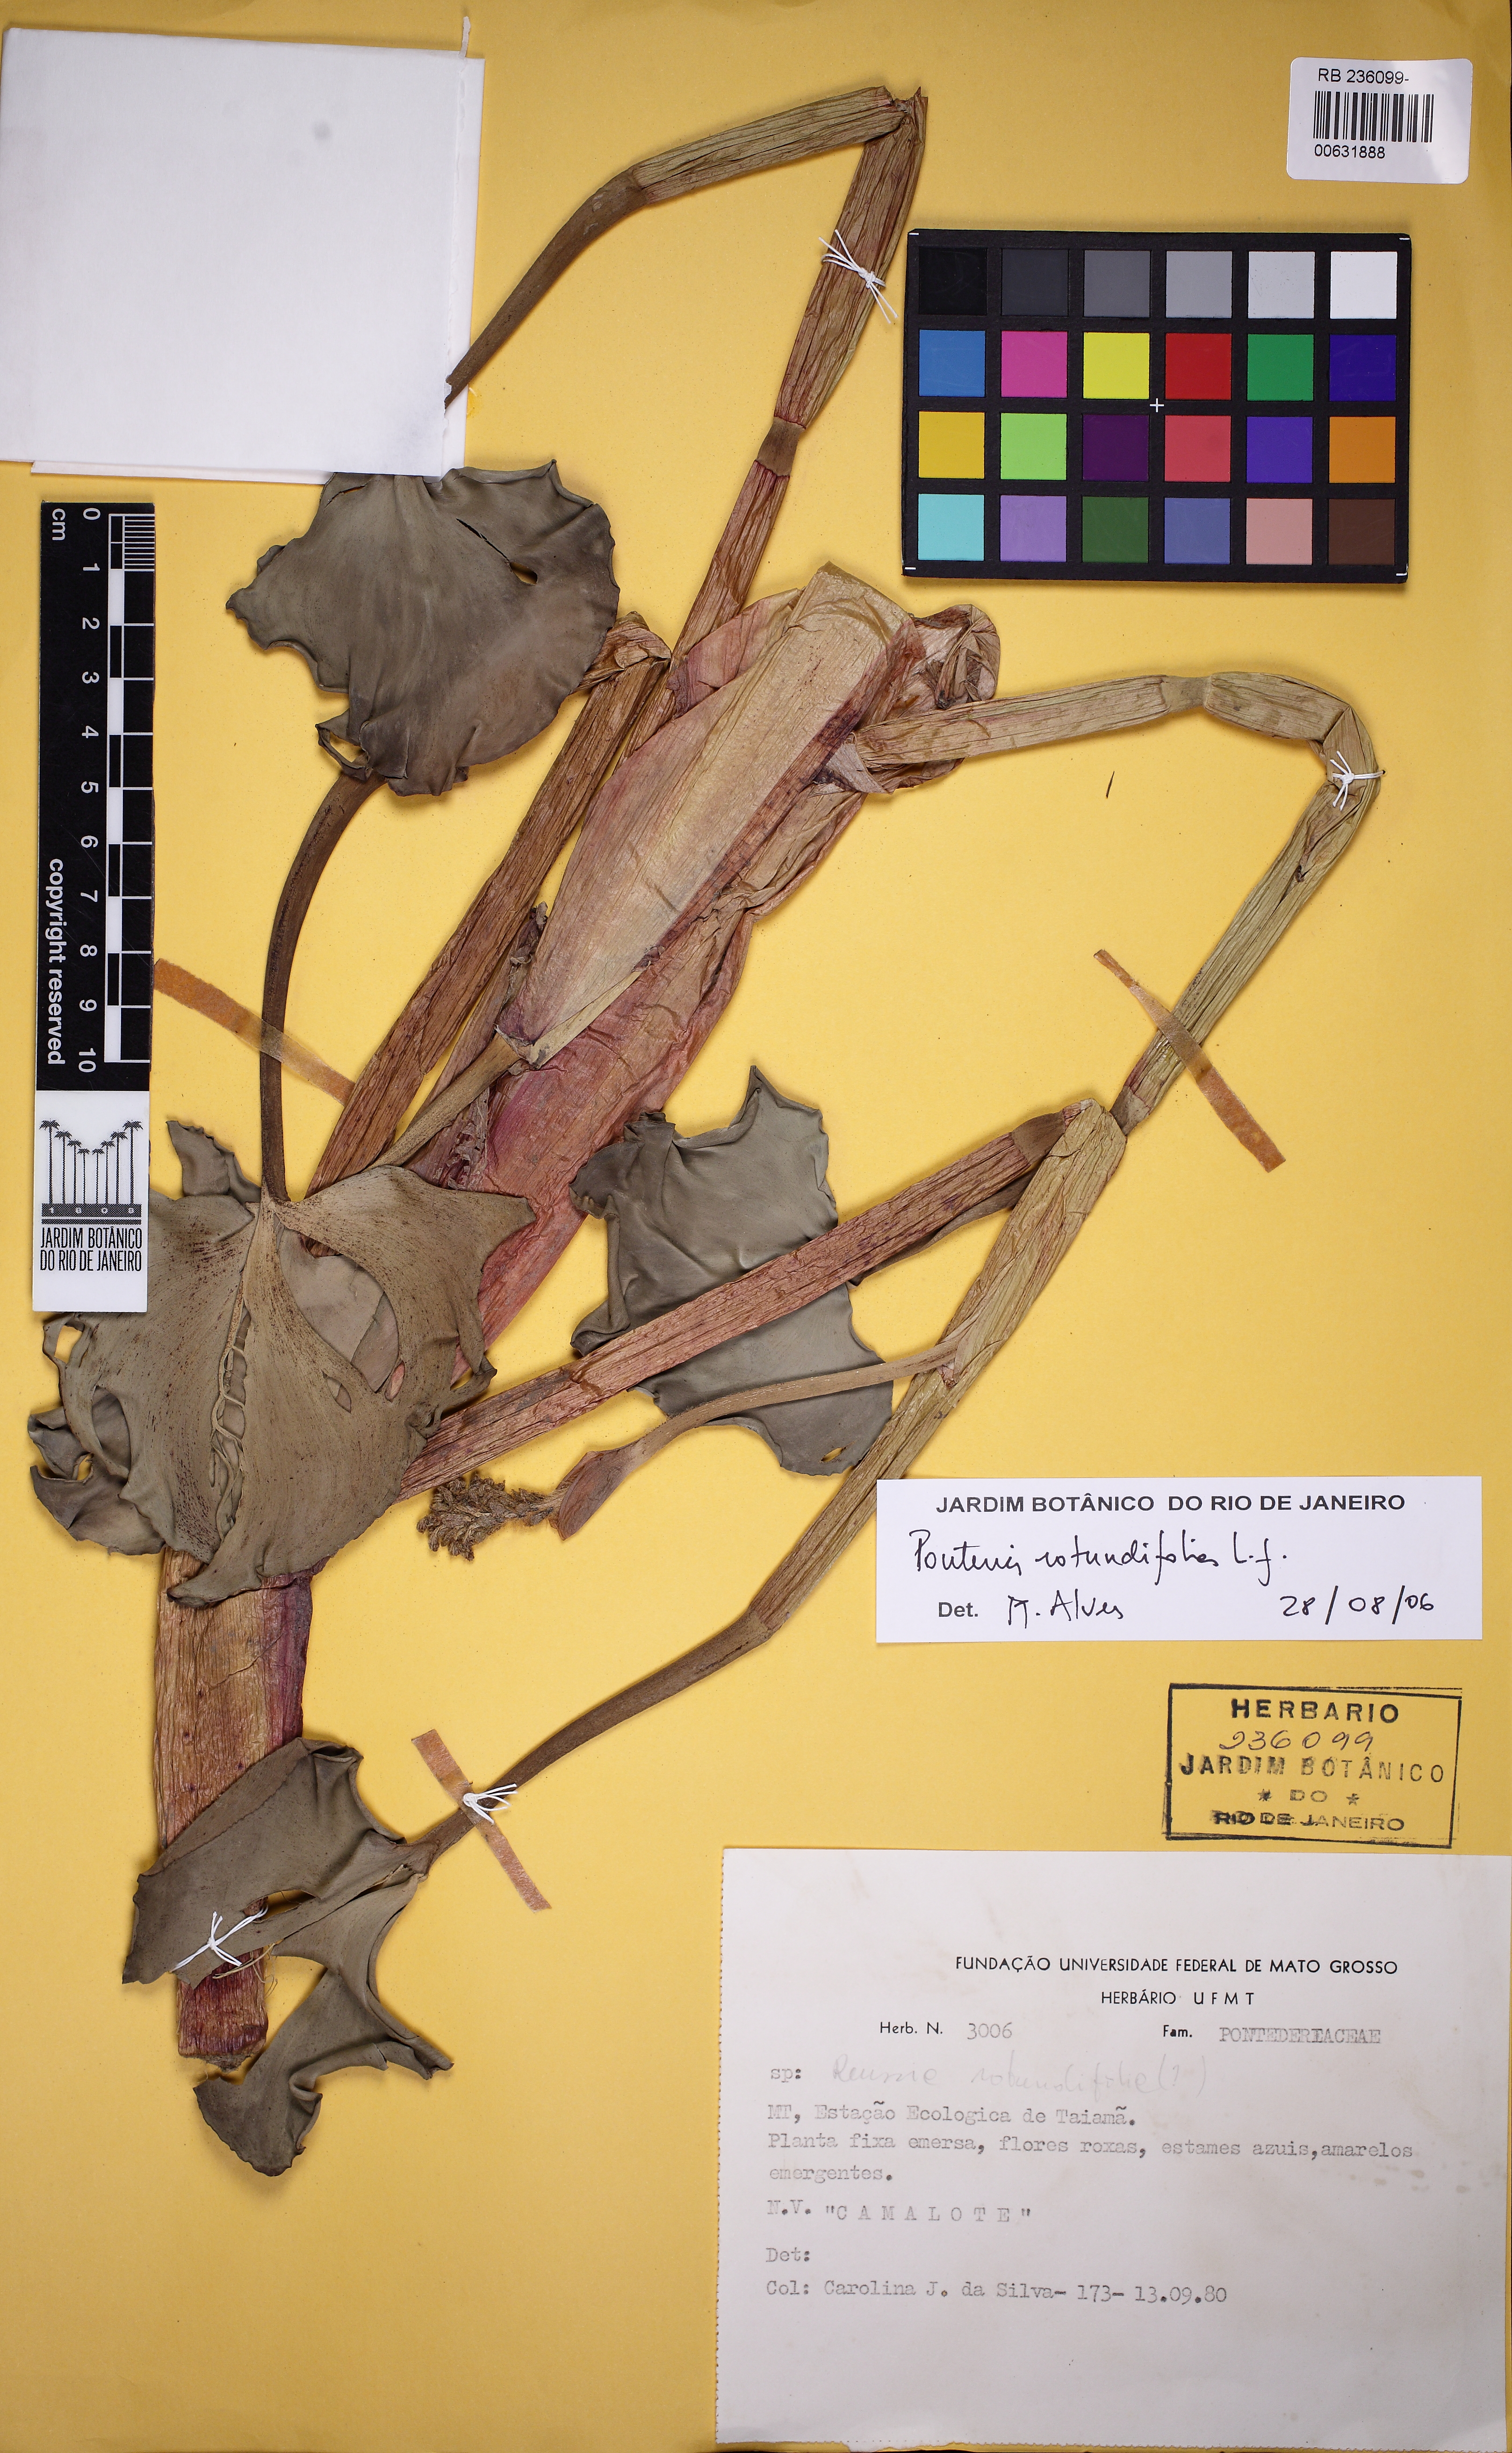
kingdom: Plantae
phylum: Tracheophyta
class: Liliopsida
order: Commelinales
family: Pontederiaceae
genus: Pontederia
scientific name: Pontederia rotundifolia
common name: Tropical pickerel-weed
